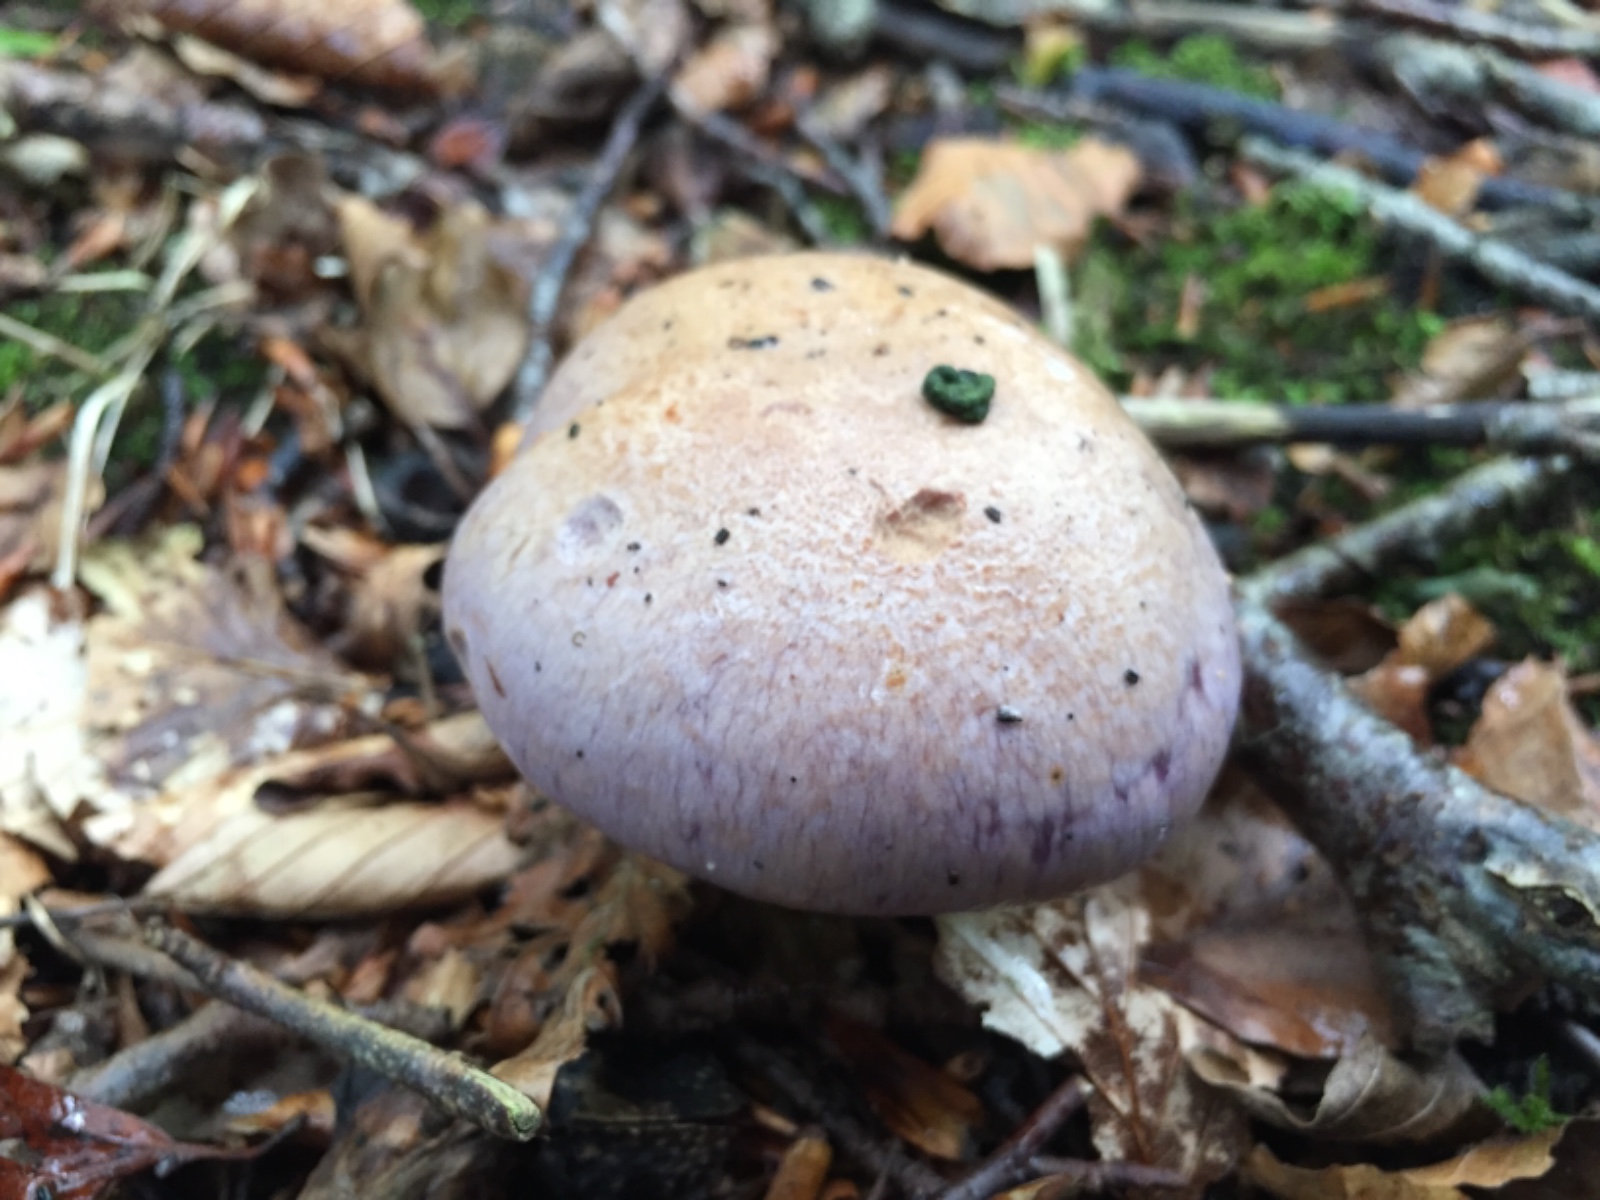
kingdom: Fungi
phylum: Basidiomycota
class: Agaricomycetes
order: Agaricales
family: Cortinariaceae
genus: Cortinarius
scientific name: Cortinarius largus
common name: violetrandet slørhat
